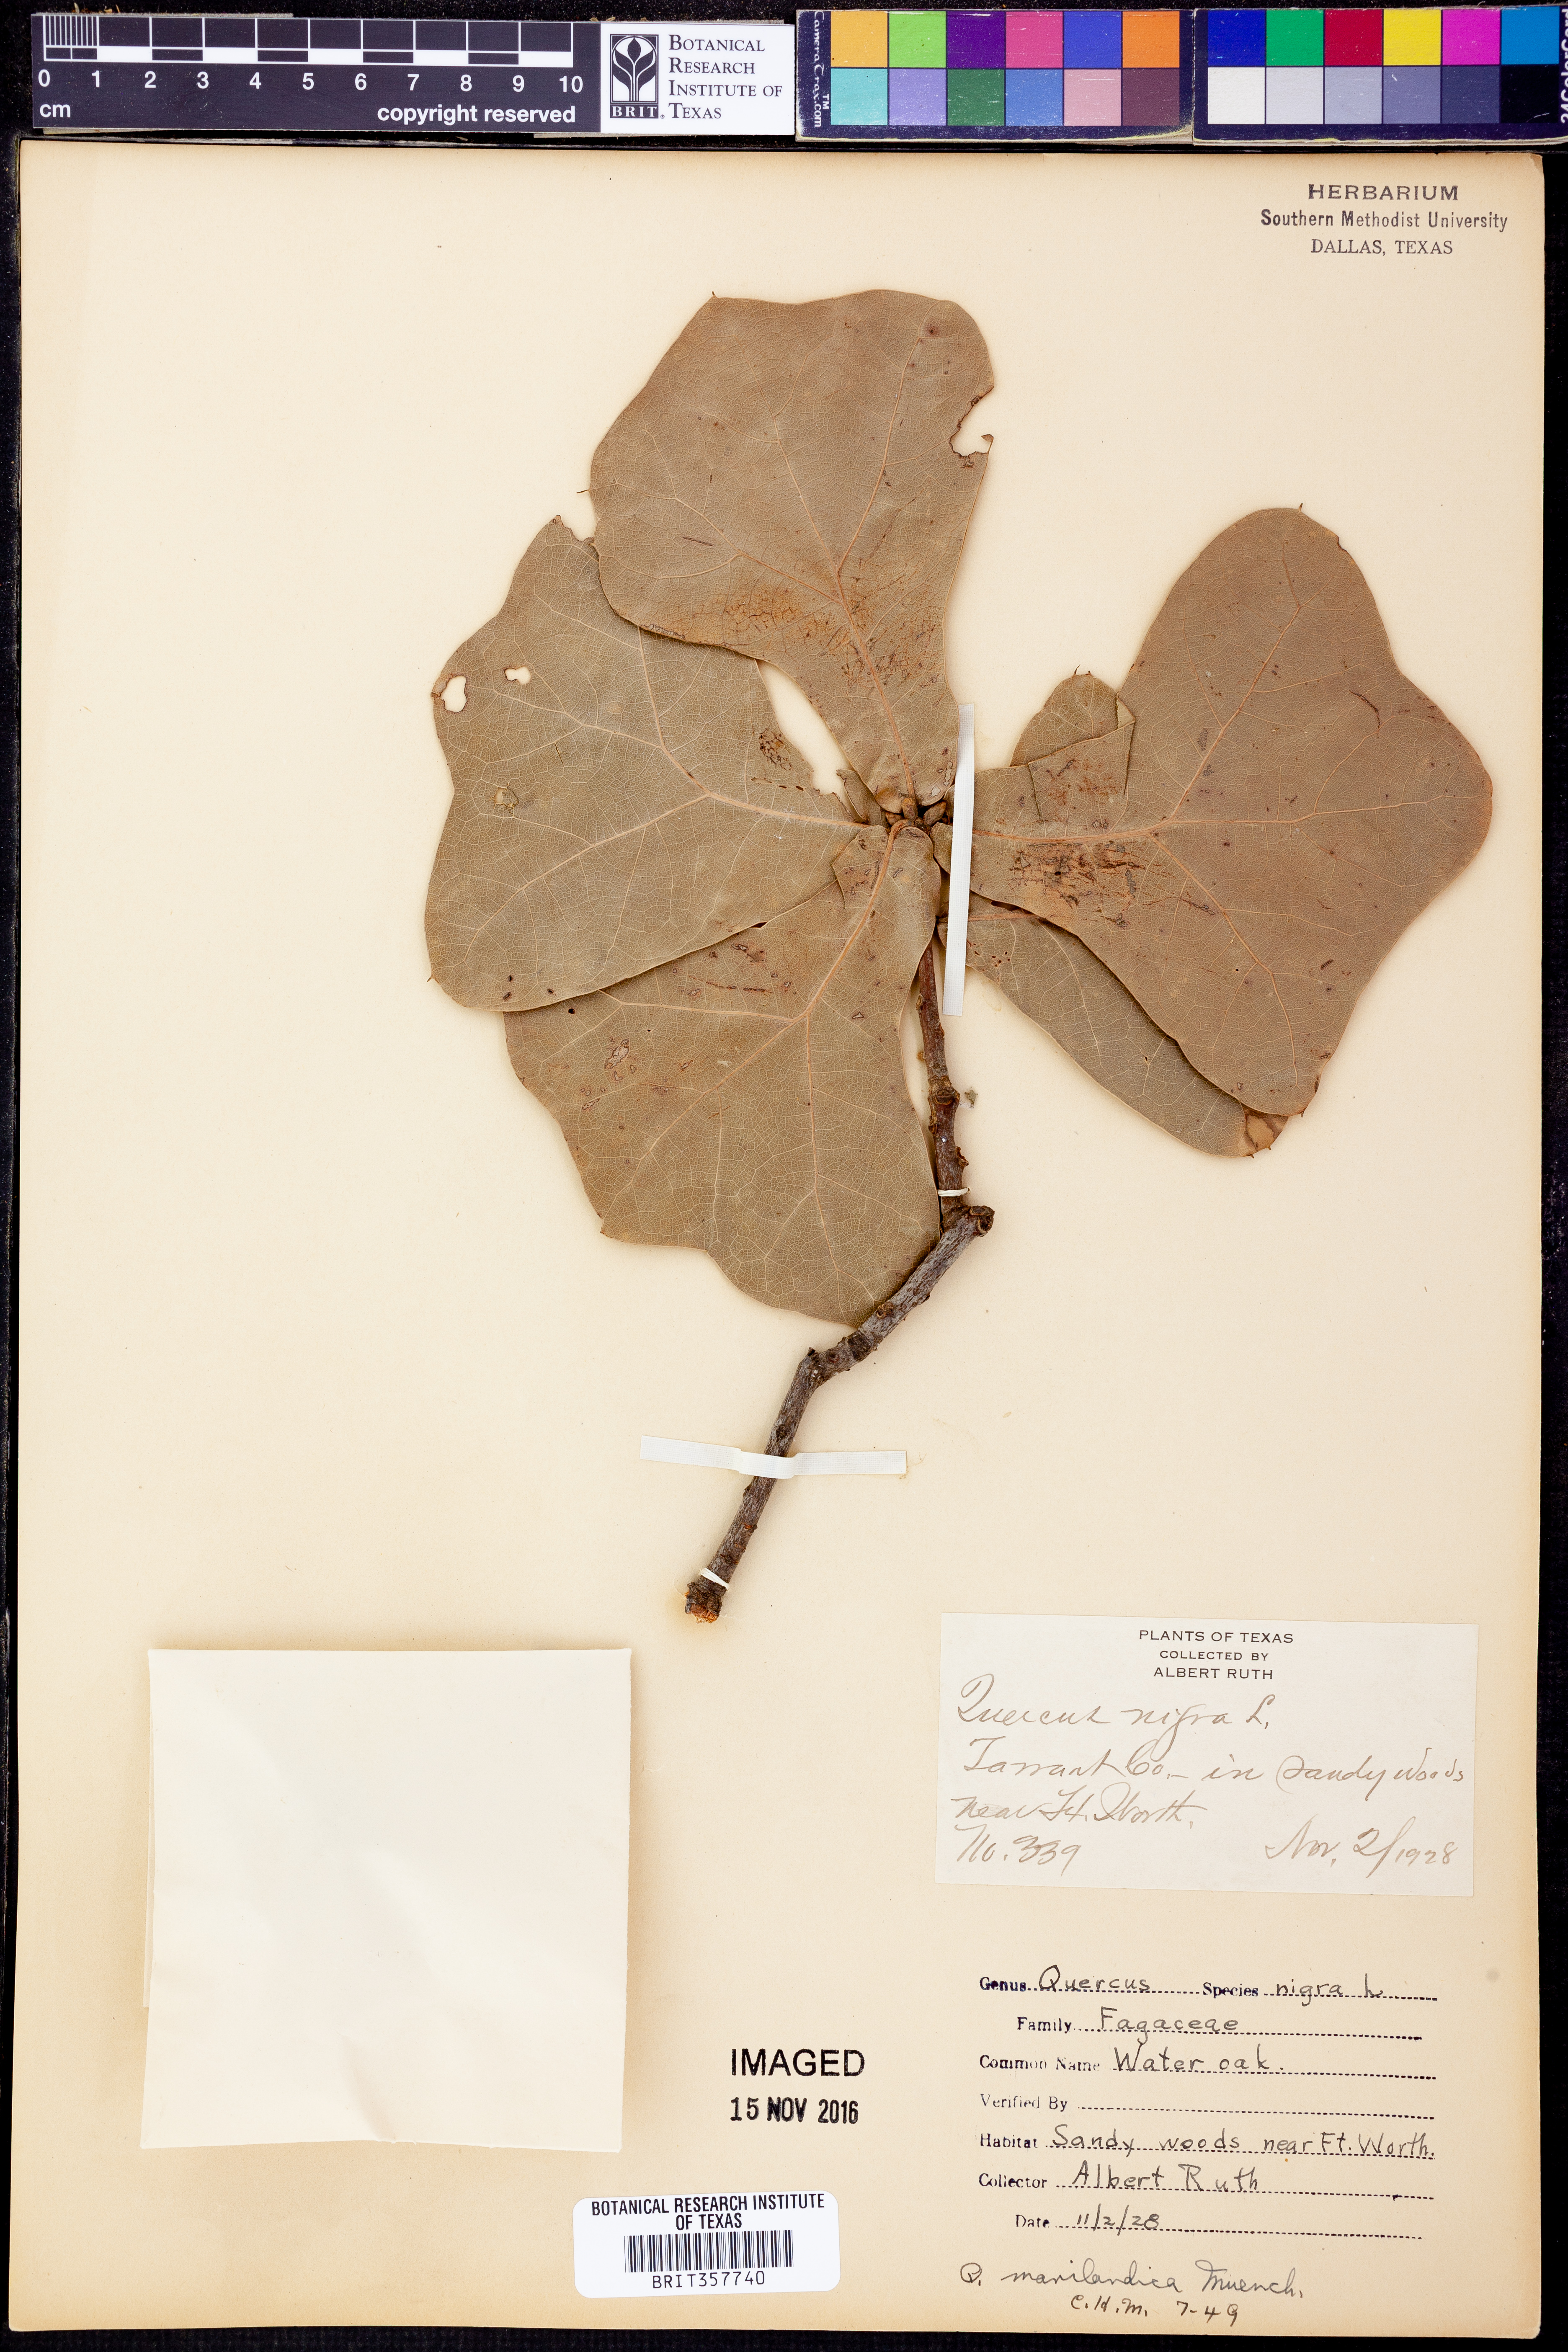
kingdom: Plantae
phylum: Tracheophyta
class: Magnoliopsida
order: Fagales
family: Fagaceae
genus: Quercus
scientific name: Quercus marilandica
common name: Blackjack oak
